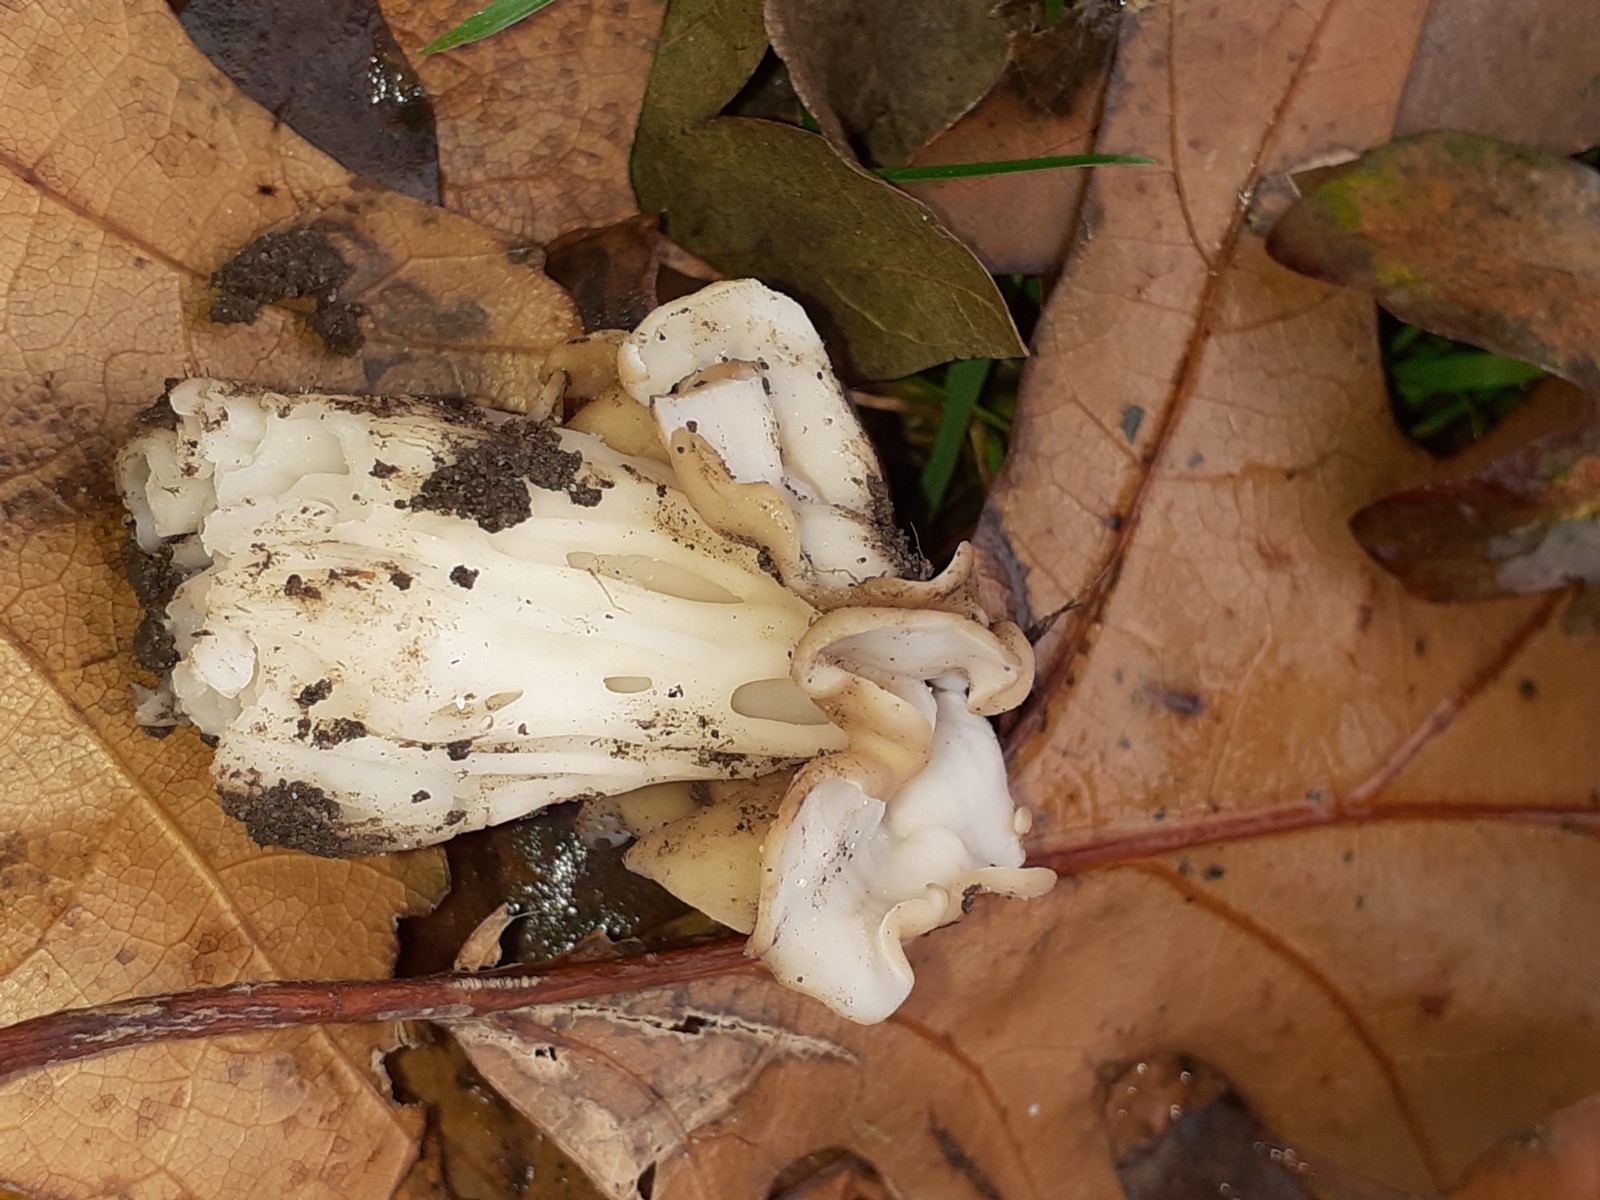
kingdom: Fungi
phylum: Ascomycota
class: Pezizomycetes
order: Pezizales
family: Helvellaceae
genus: Helvella
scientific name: Helvella crispa
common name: kruset foldhat
